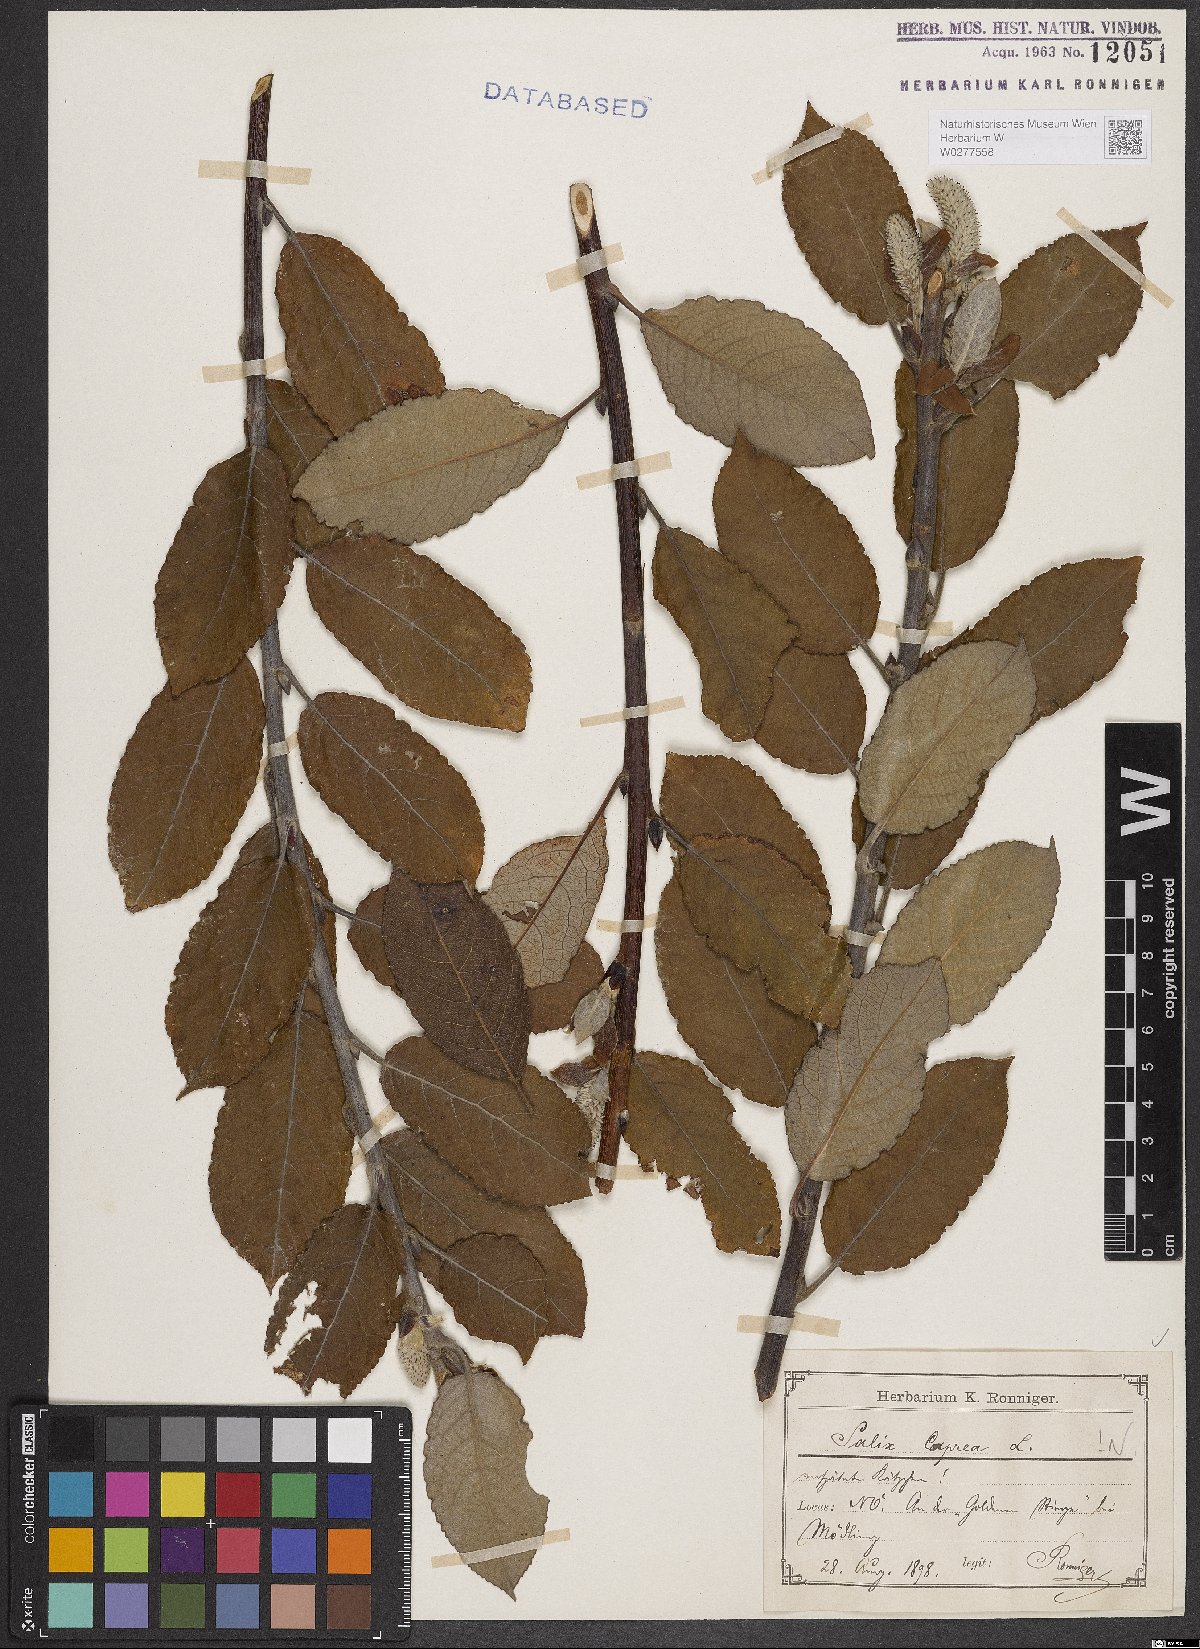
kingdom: Plantae
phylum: Tracheophyta
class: Magnoliopsida
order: Malpighiales
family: Salicaceae
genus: Salix
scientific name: Salix caprea
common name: Goat willow
